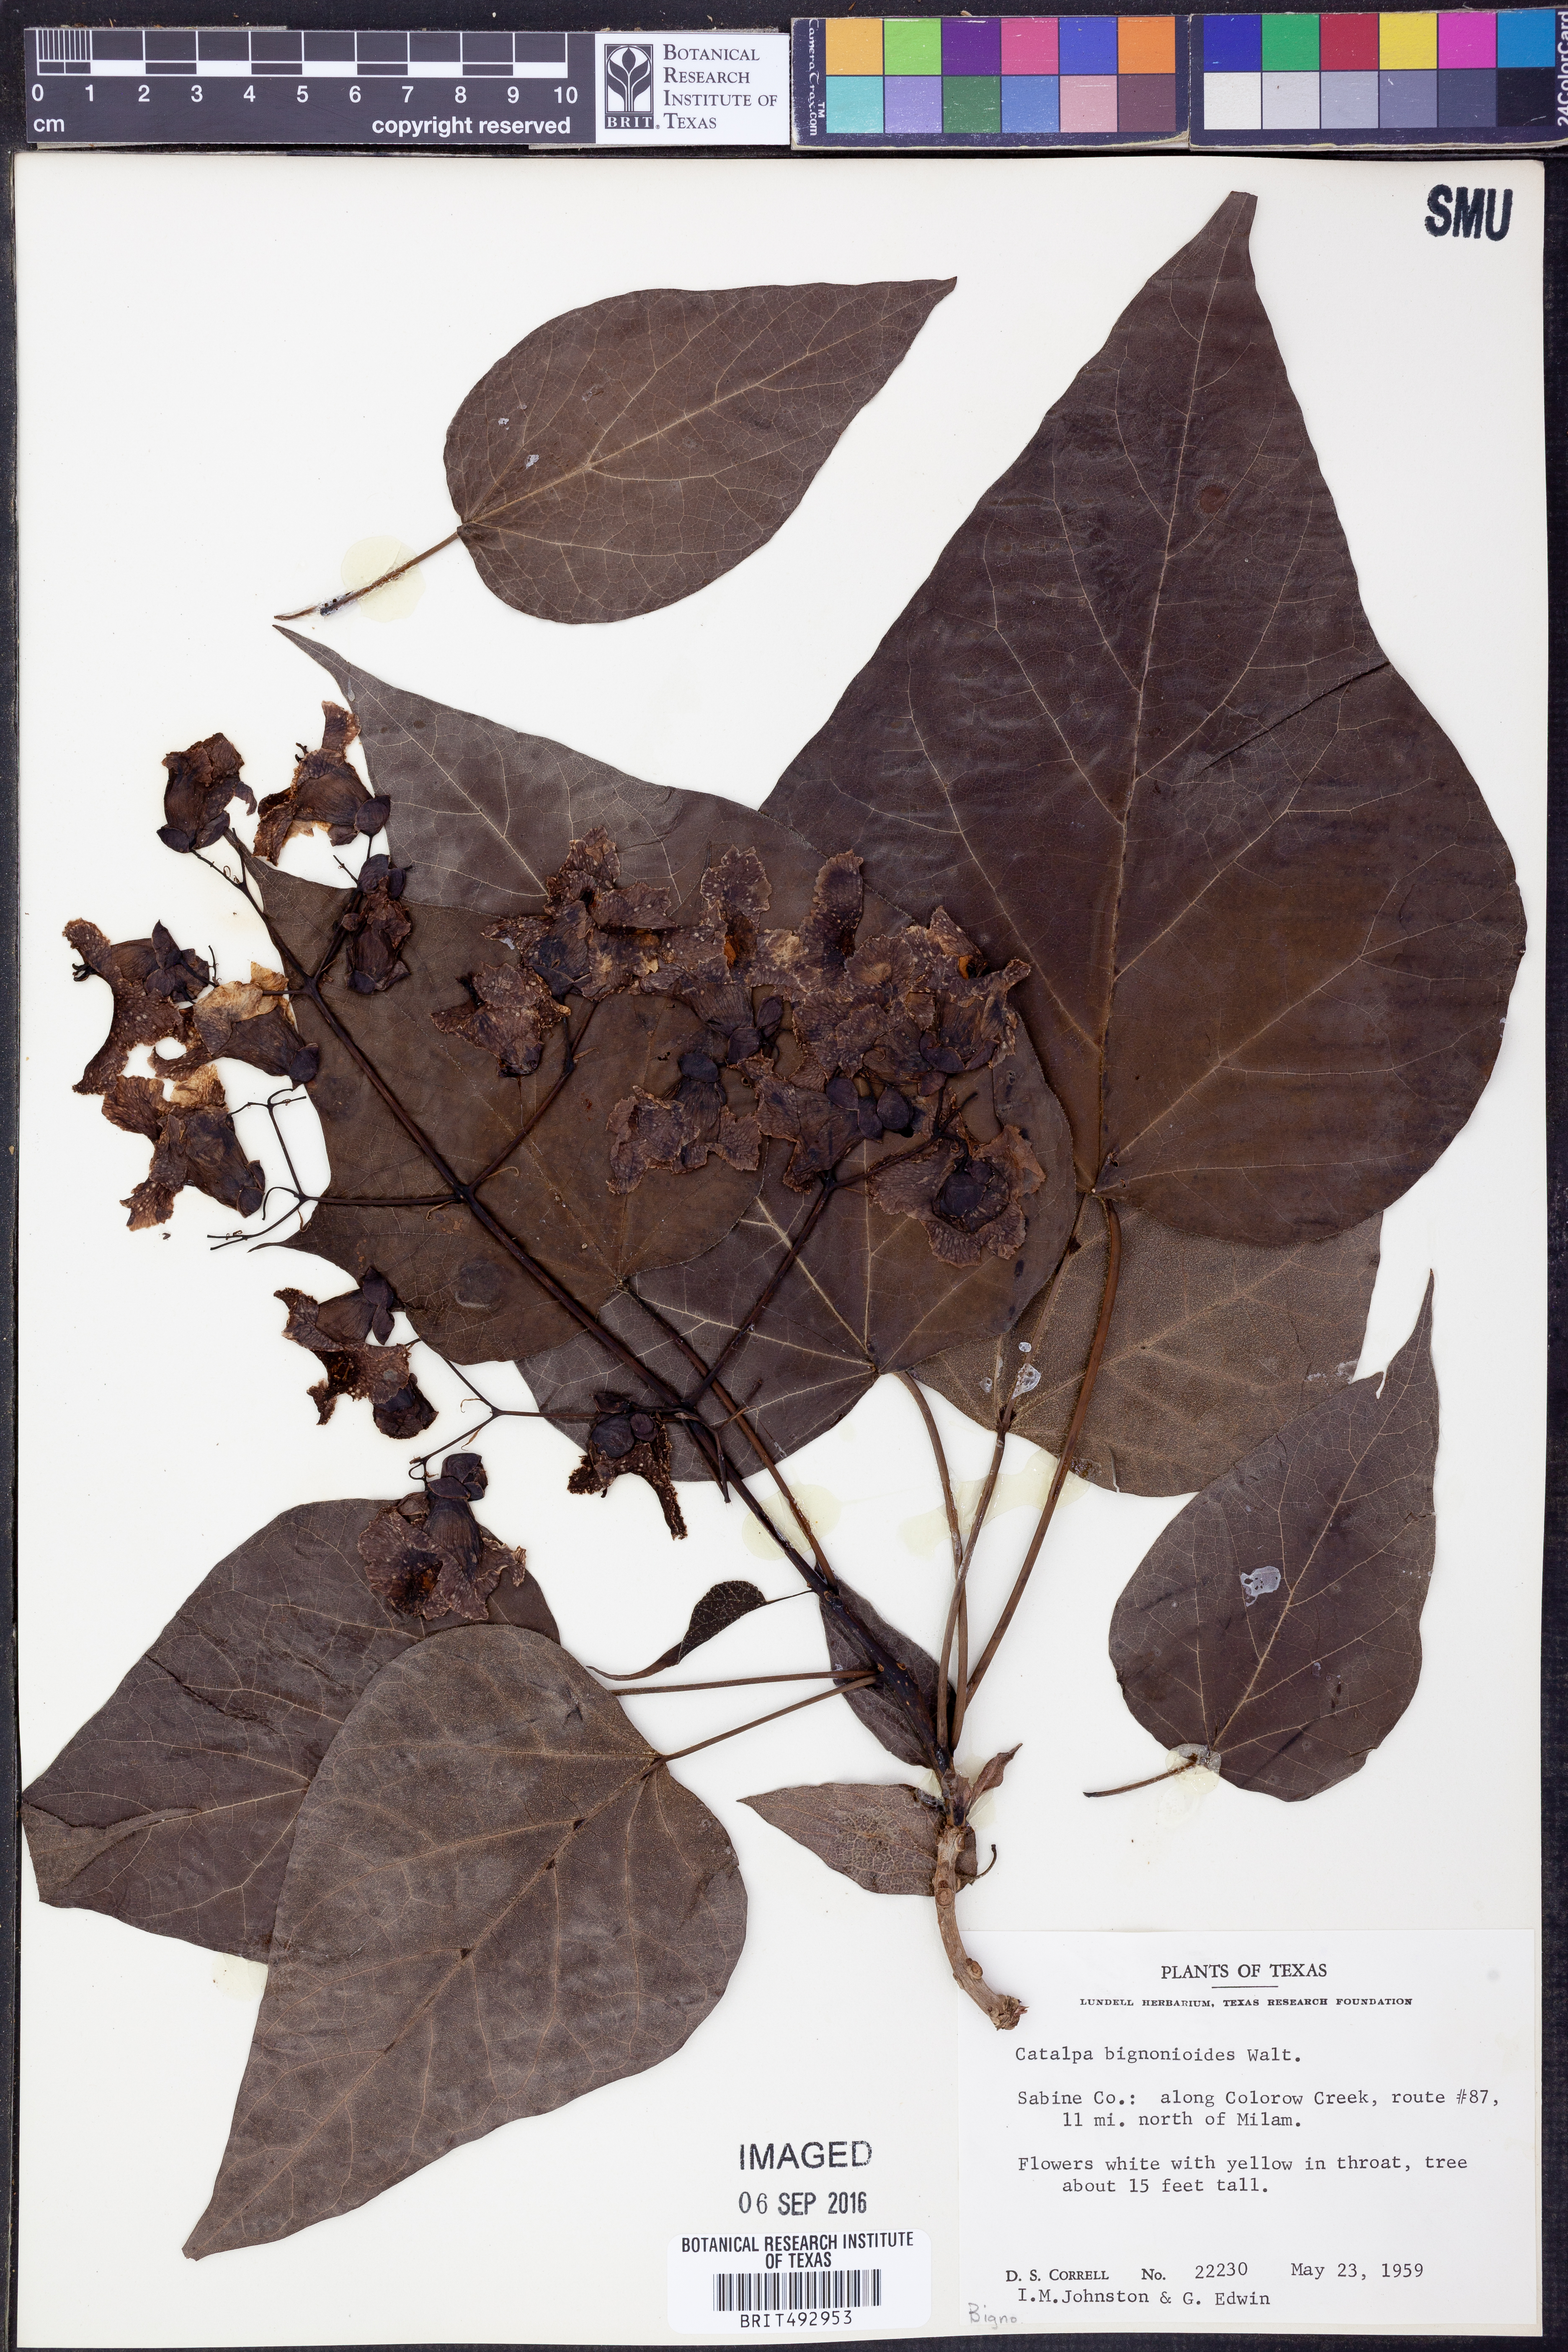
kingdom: Plantae
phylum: Tracheophyta
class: Magnoliopsida
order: Lamiales
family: Bignoniaceae
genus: Catalpa
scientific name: Catalpa bignonioides
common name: Southern catalpa
